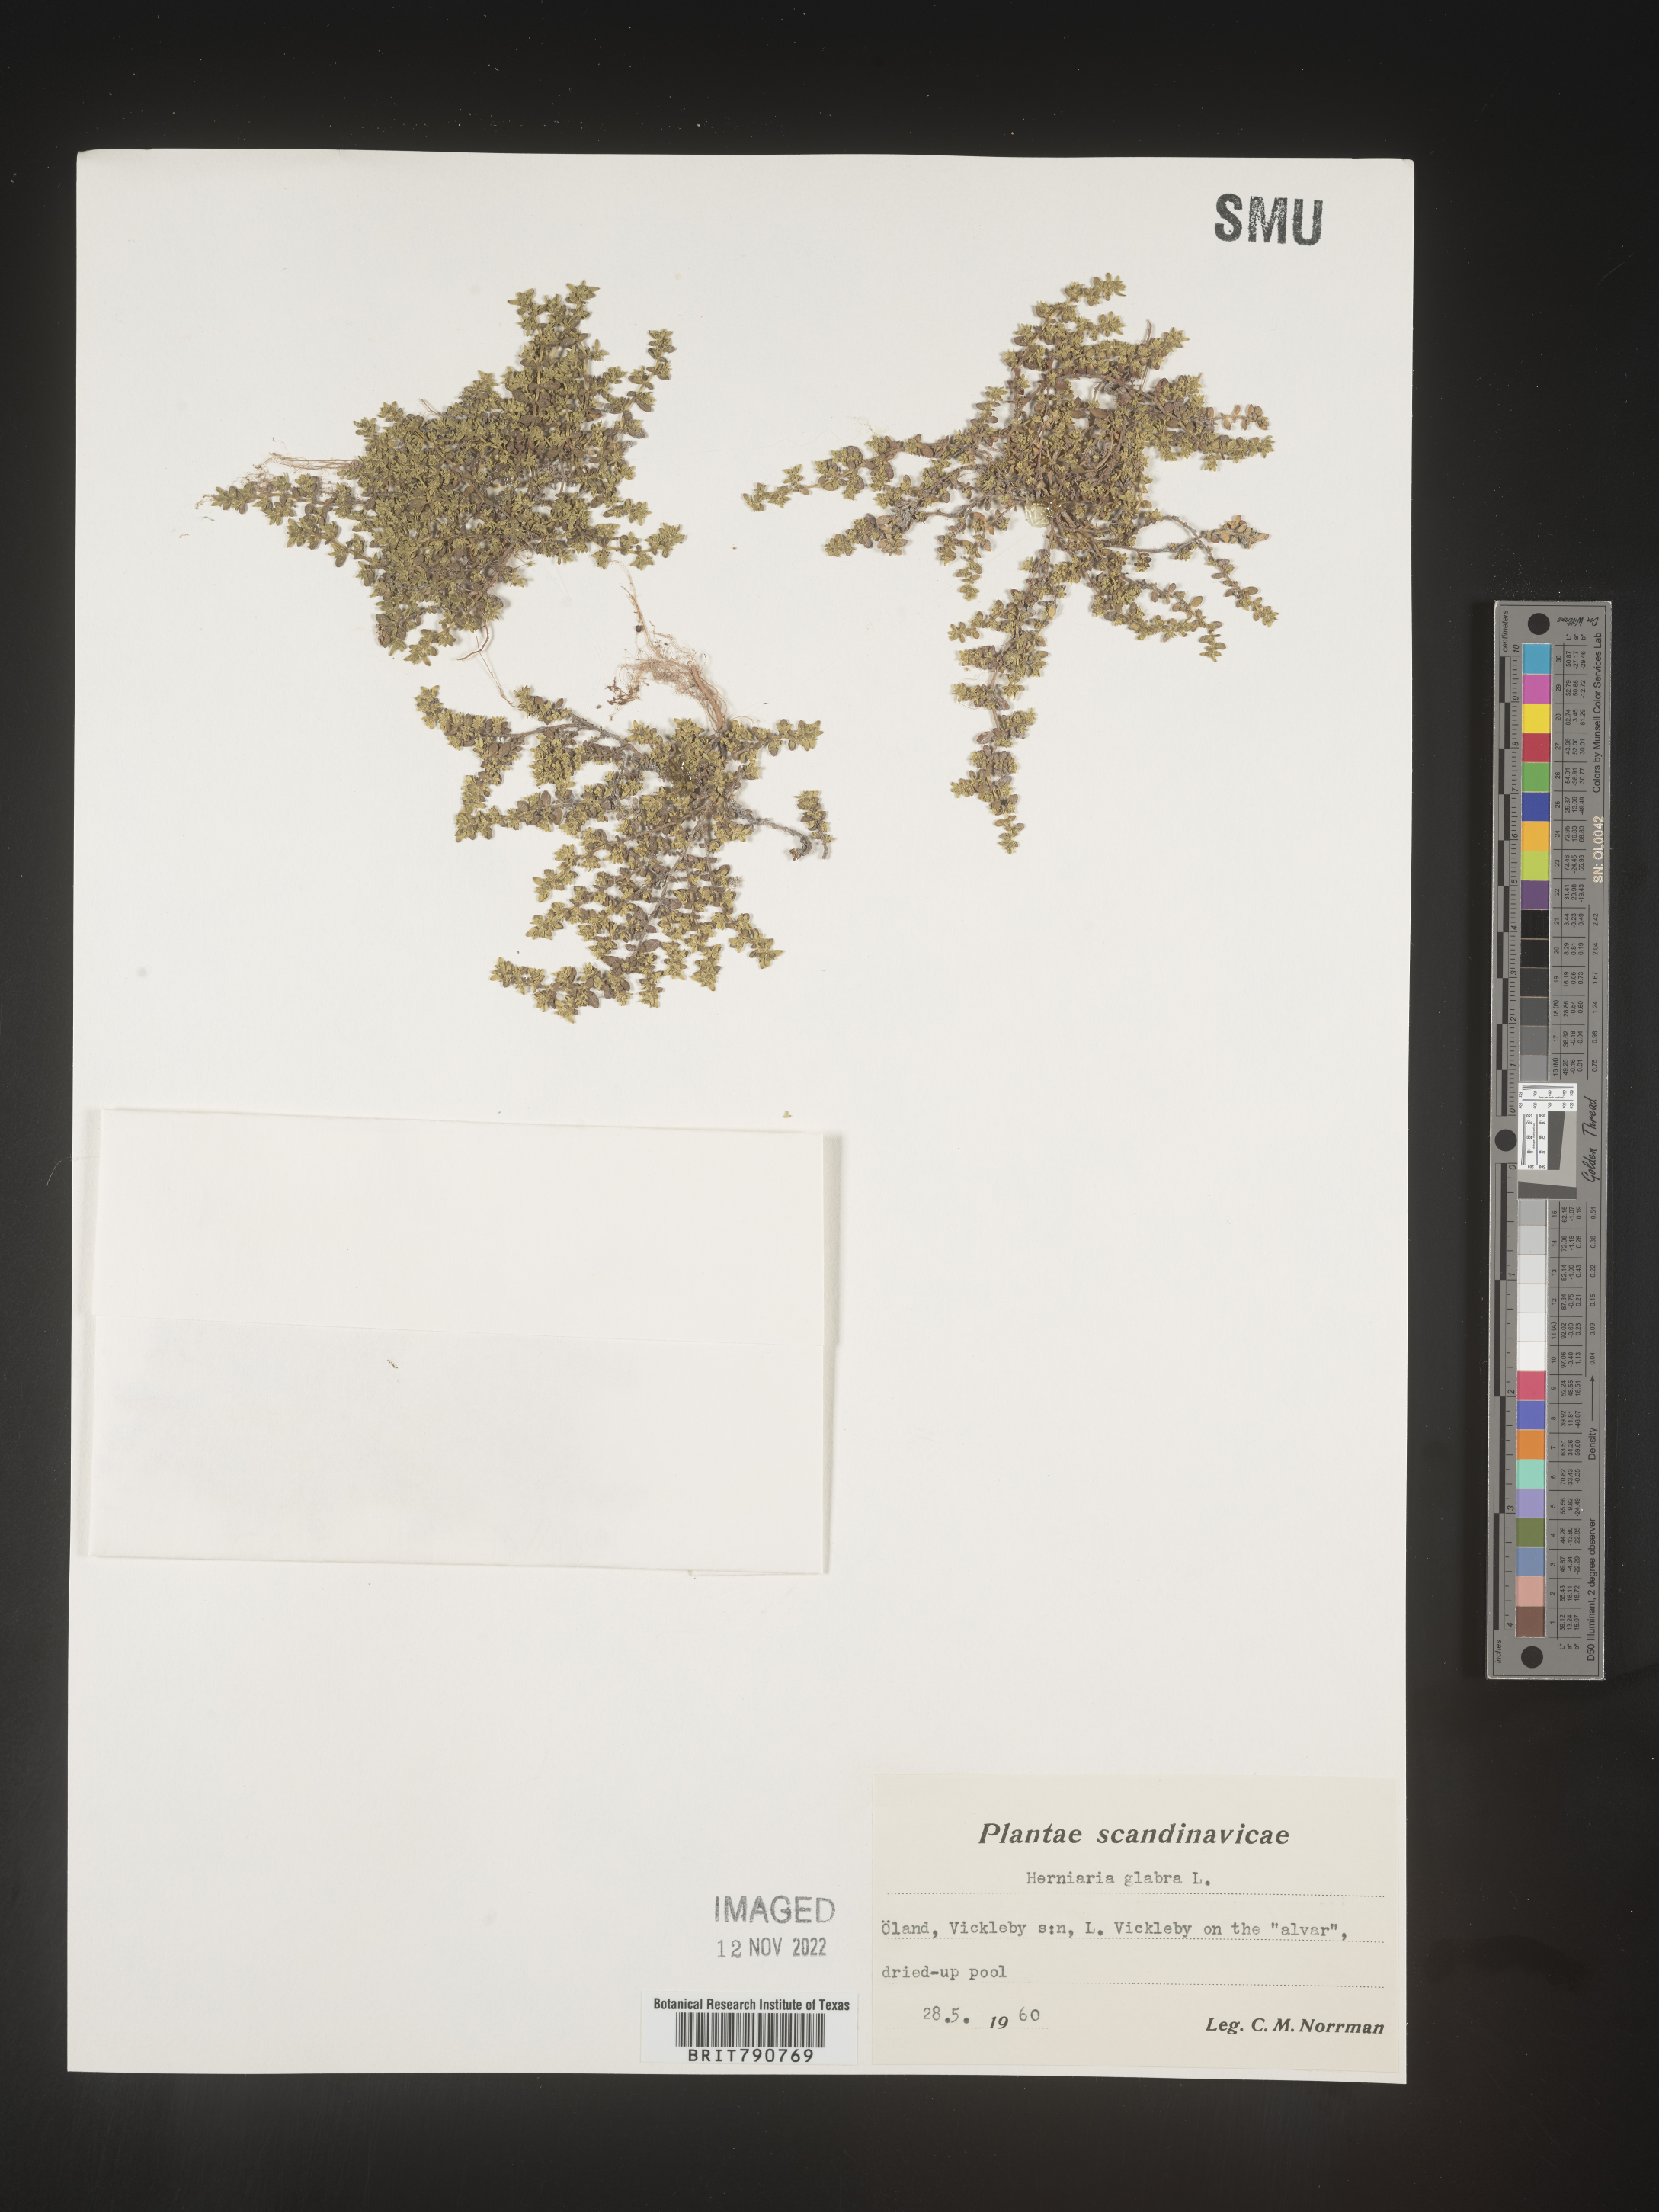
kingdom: Plantae
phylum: Tracheophyta
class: Magnoliopsida
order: Caryophyllales
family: Caryophyllaceae
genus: Herniaria
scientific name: Herniaria
